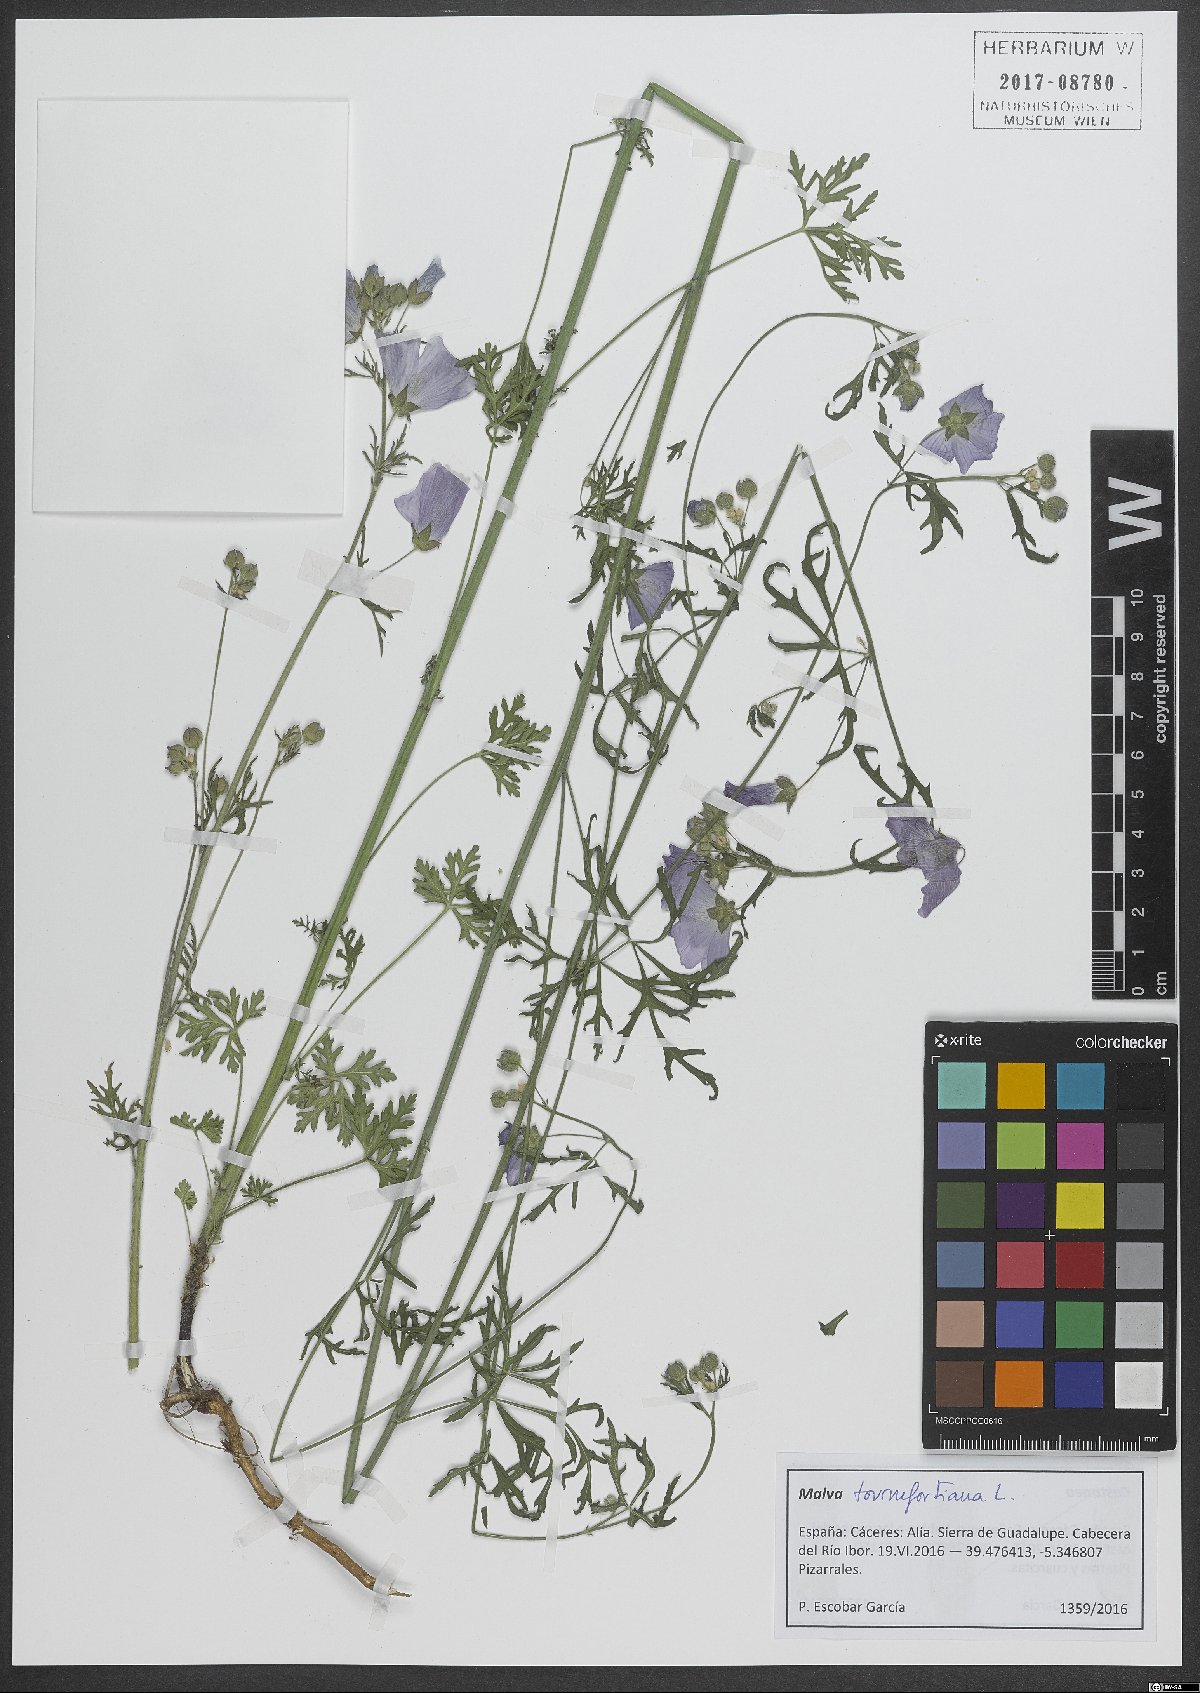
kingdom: Plantae
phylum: Tracheophyta
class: Magnoliopsida
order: Malvales
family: Malvaceae
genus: Malva
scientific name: Malva tournefortiana
